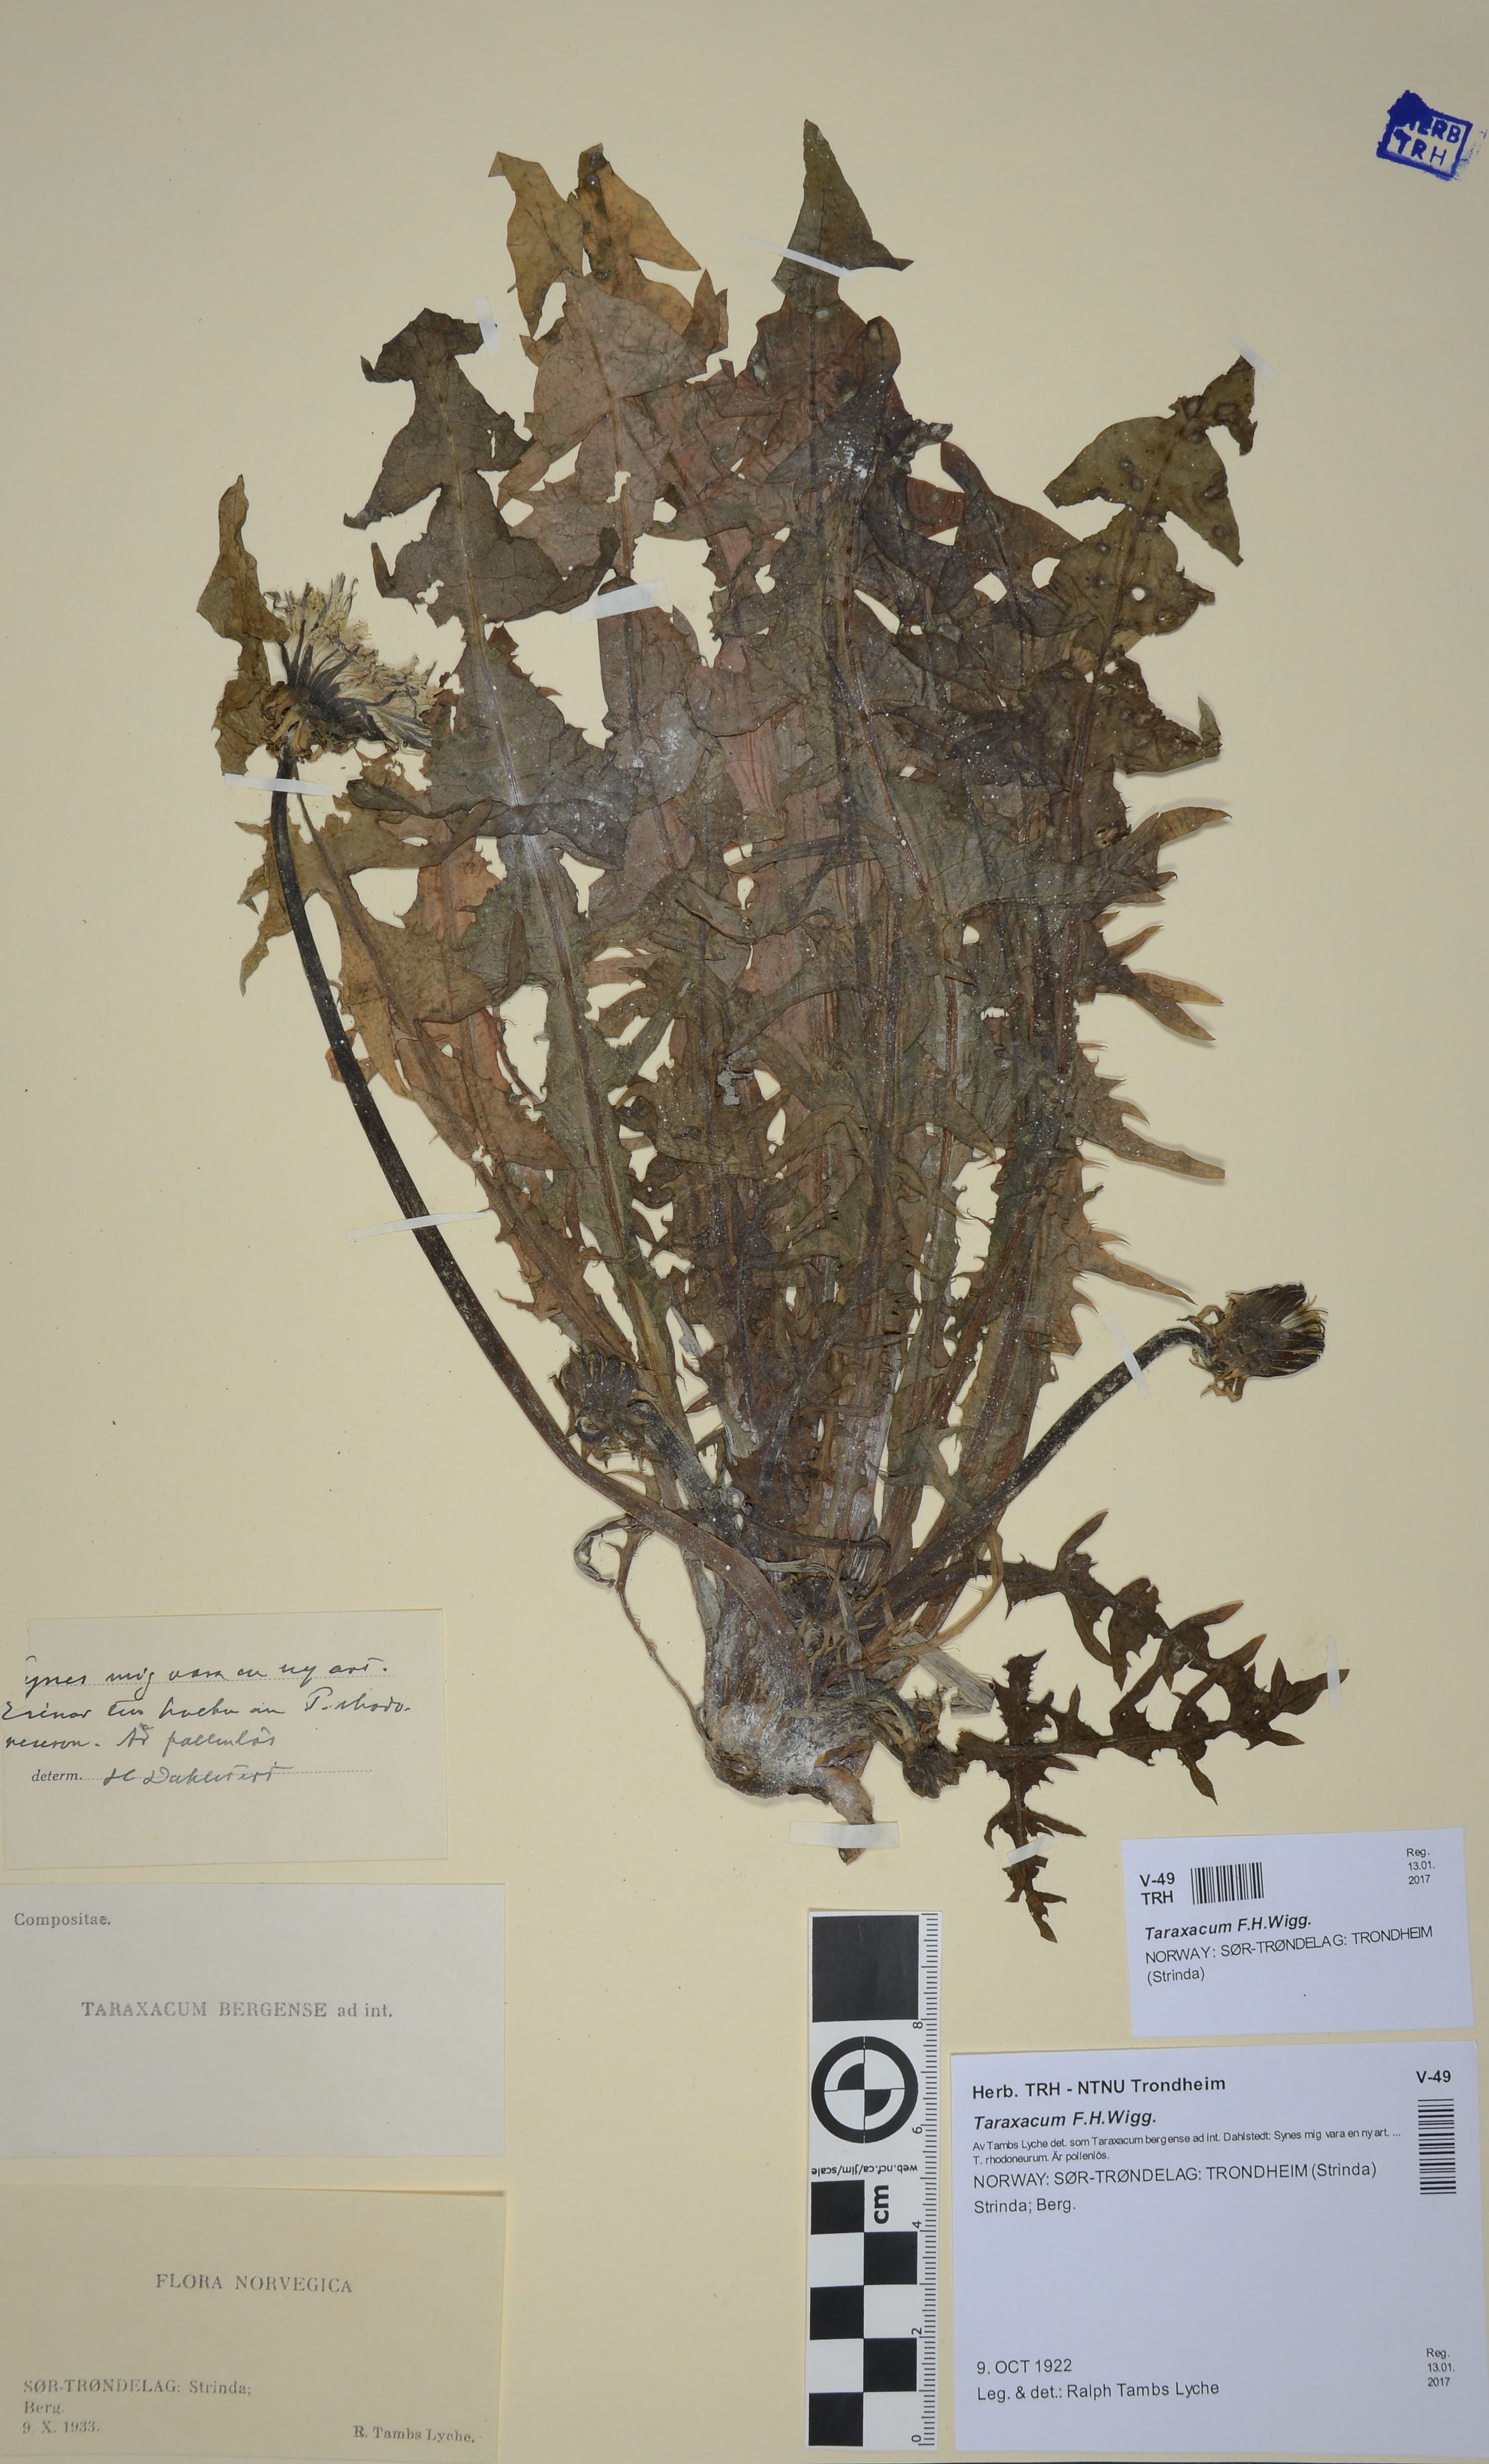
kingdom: Plantae
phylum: Tracheophyta
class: Magnoliopsida
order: Asterales
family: Asteraceae
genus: Taraxacum
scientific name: Taraxacum
